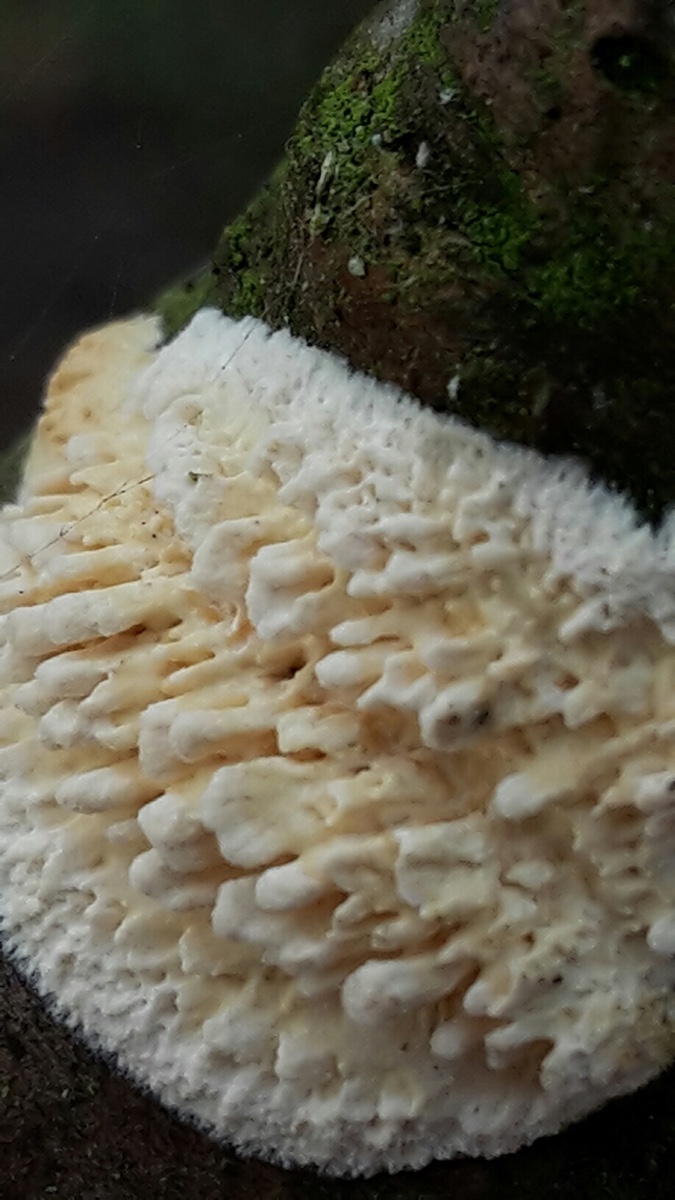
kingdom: Fungi
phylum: Basidiomycota
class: Agaricomycetes
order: Hymenochaetales
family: Schizoporaceae
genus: Xylodon
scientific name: Xylodon radula
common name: grovtandet kalkskind
